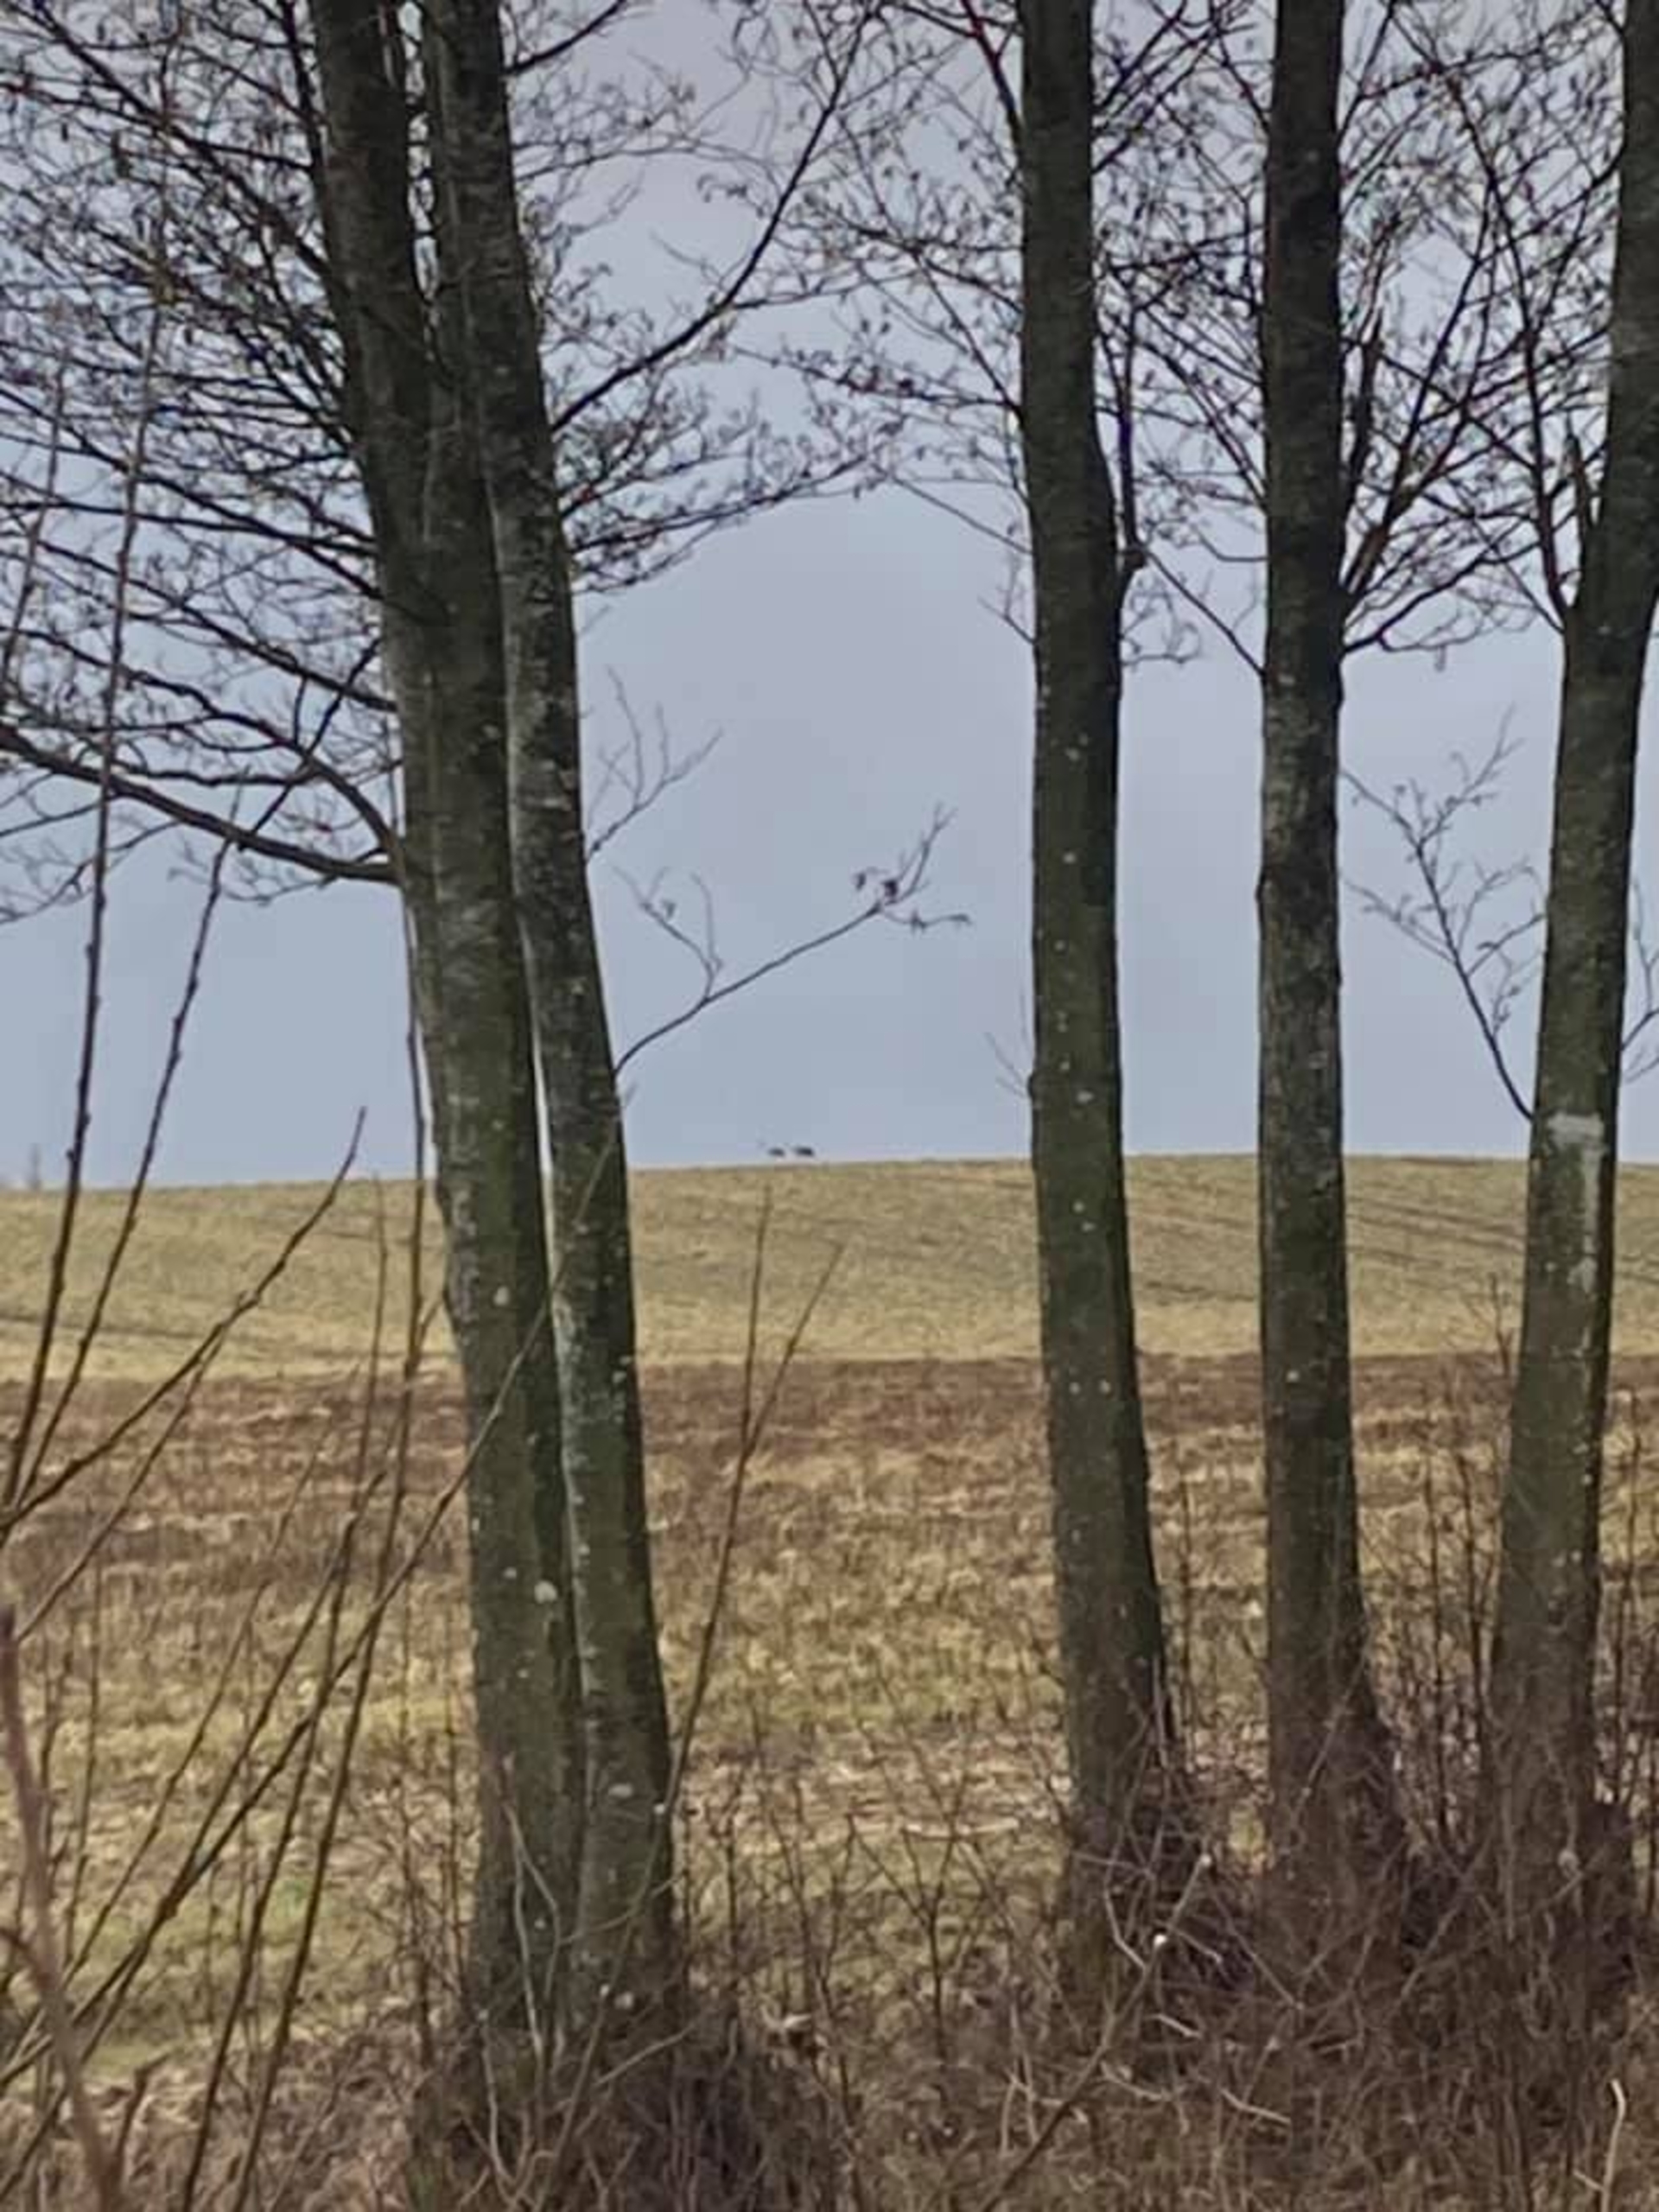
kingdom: Animalia
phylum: Chordata
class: Aves
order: Gruiformes
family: Gruidae
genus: Grus
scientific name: Grus grus
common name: Trane
